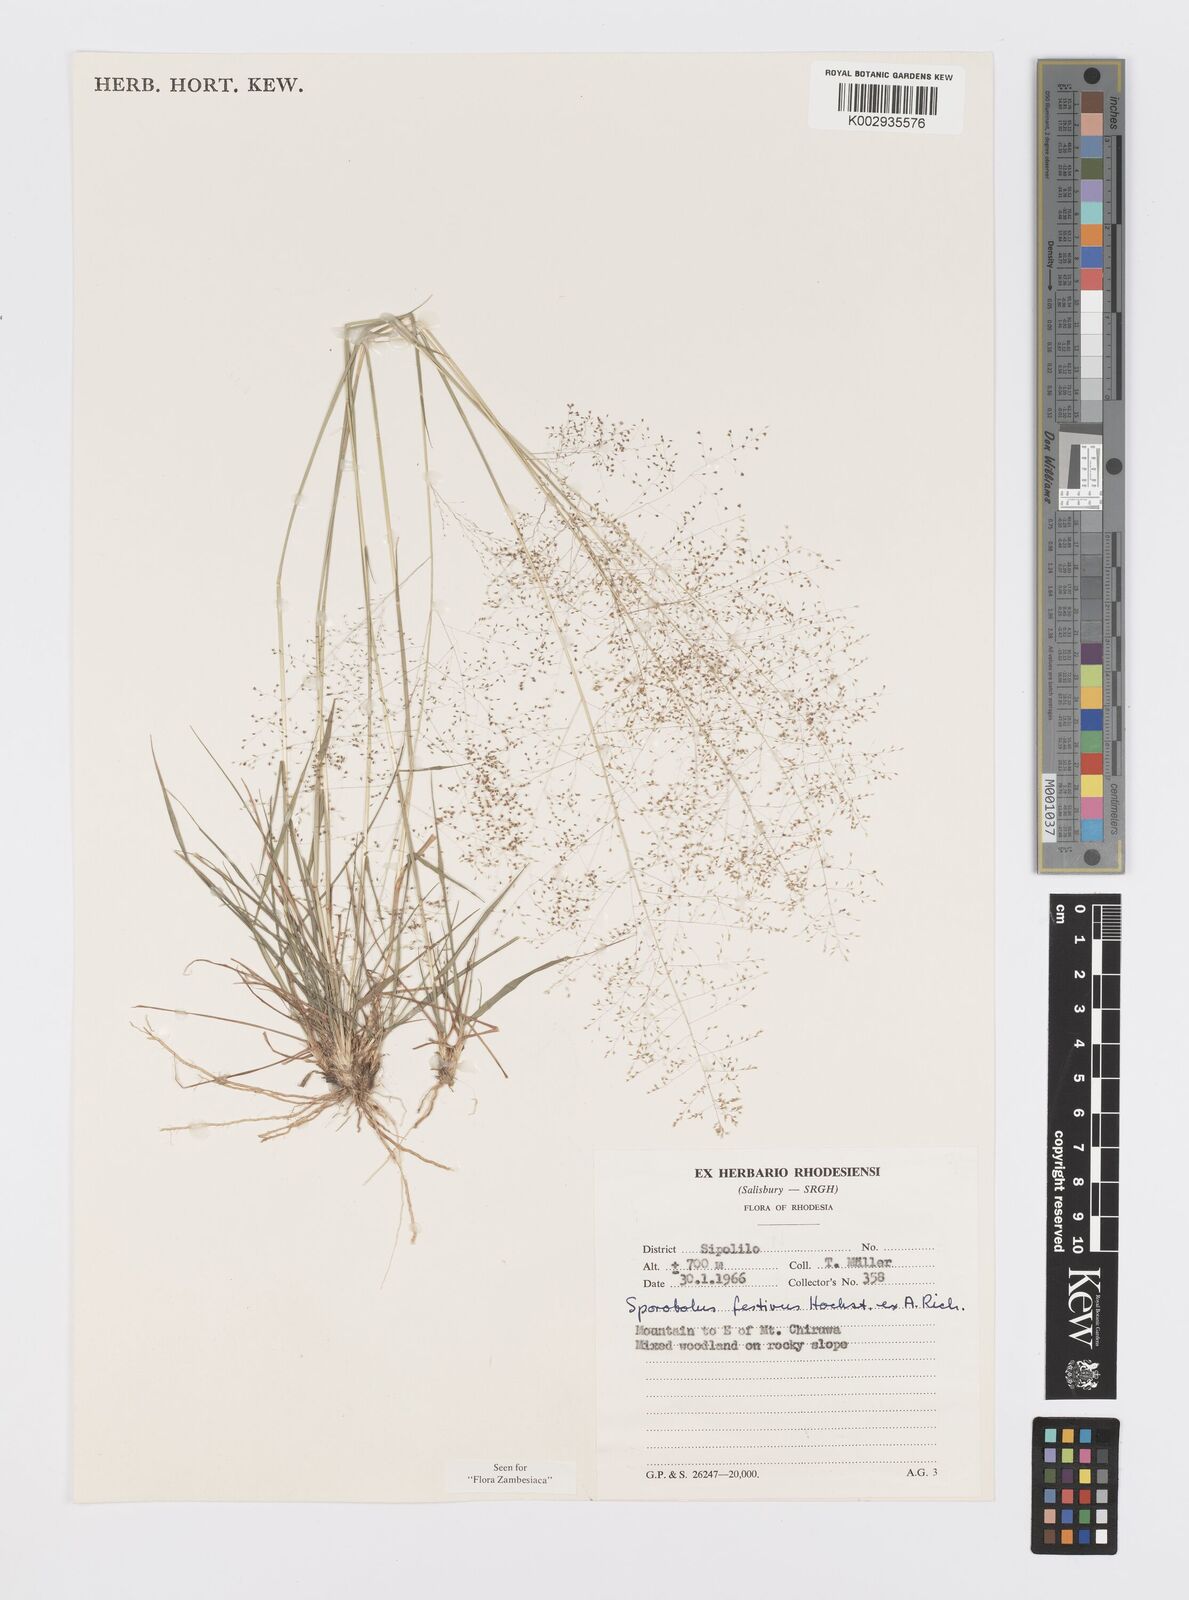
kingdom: Plantae
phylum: Tracheophyta
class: Liliopsida
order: Poales
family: Poaceae
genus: Sporobolus
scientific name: Sporobolus festivus
